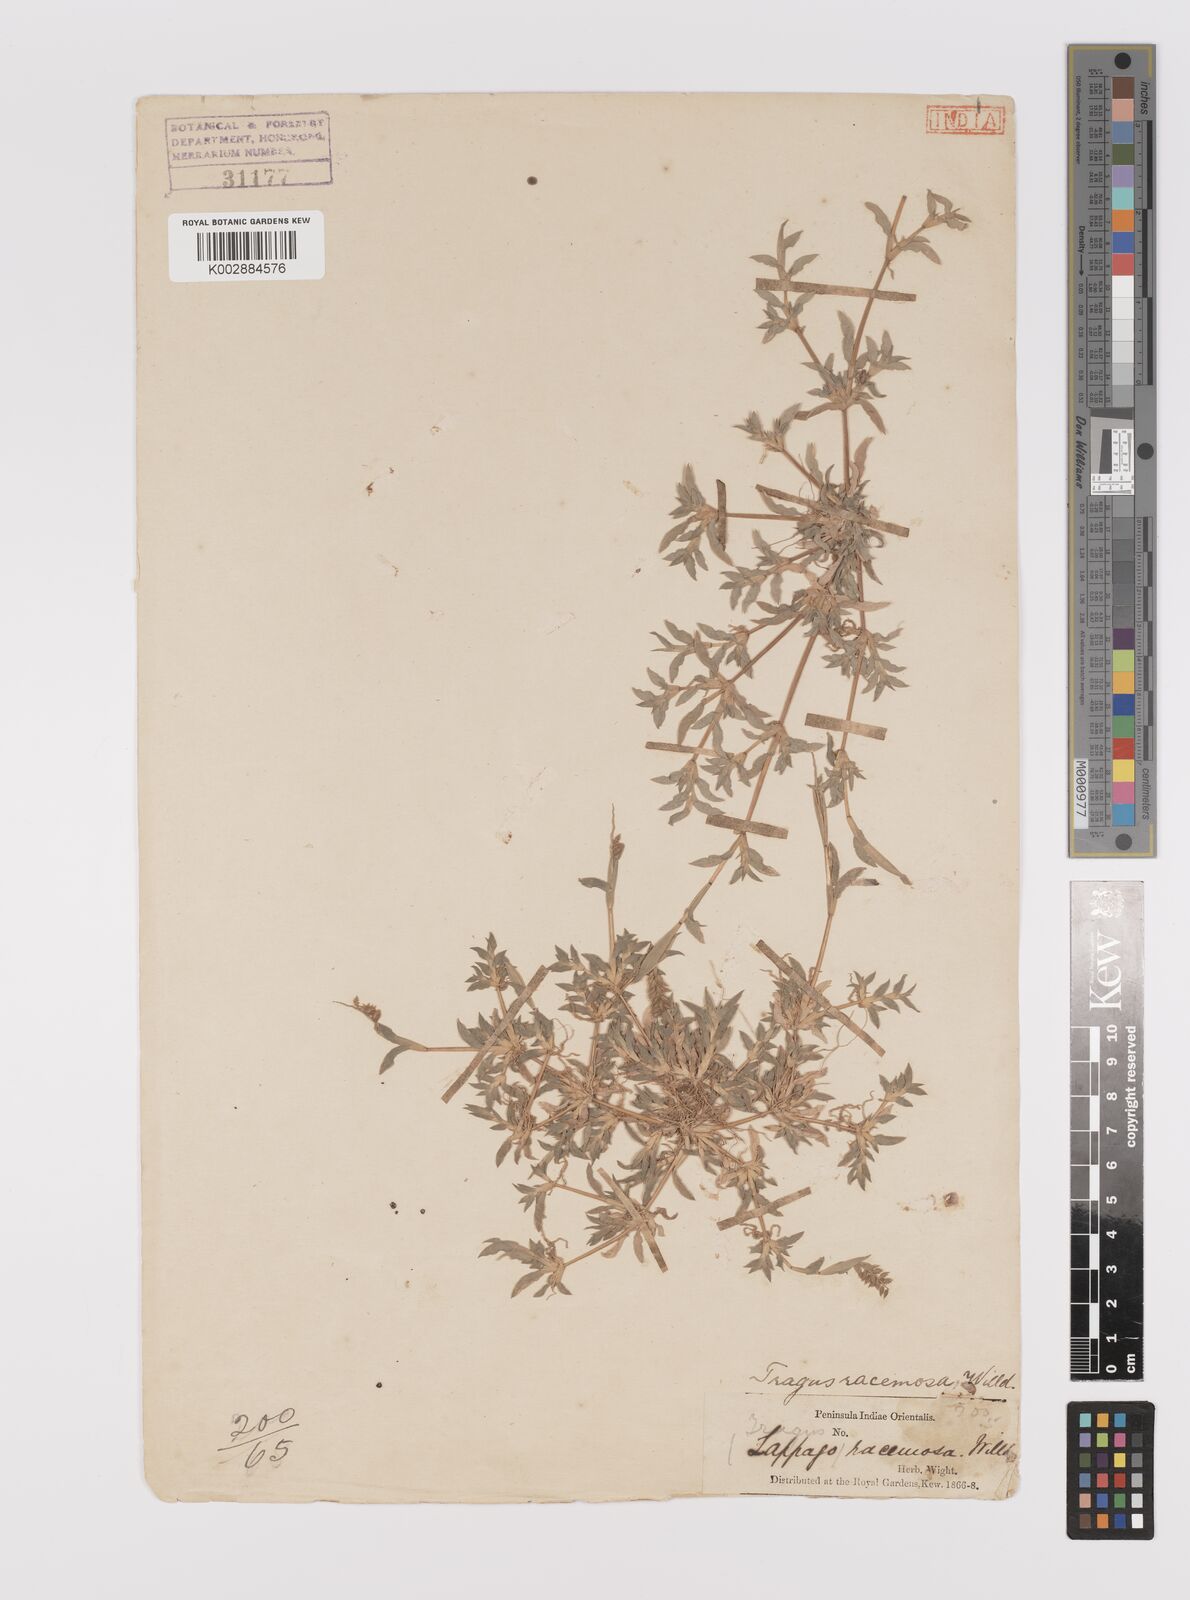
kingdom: Plantae
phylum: Tracheophyta
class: Liliopsida
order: Poales
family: Poaceae
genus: Tragus
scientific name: Tragus mongolorum
